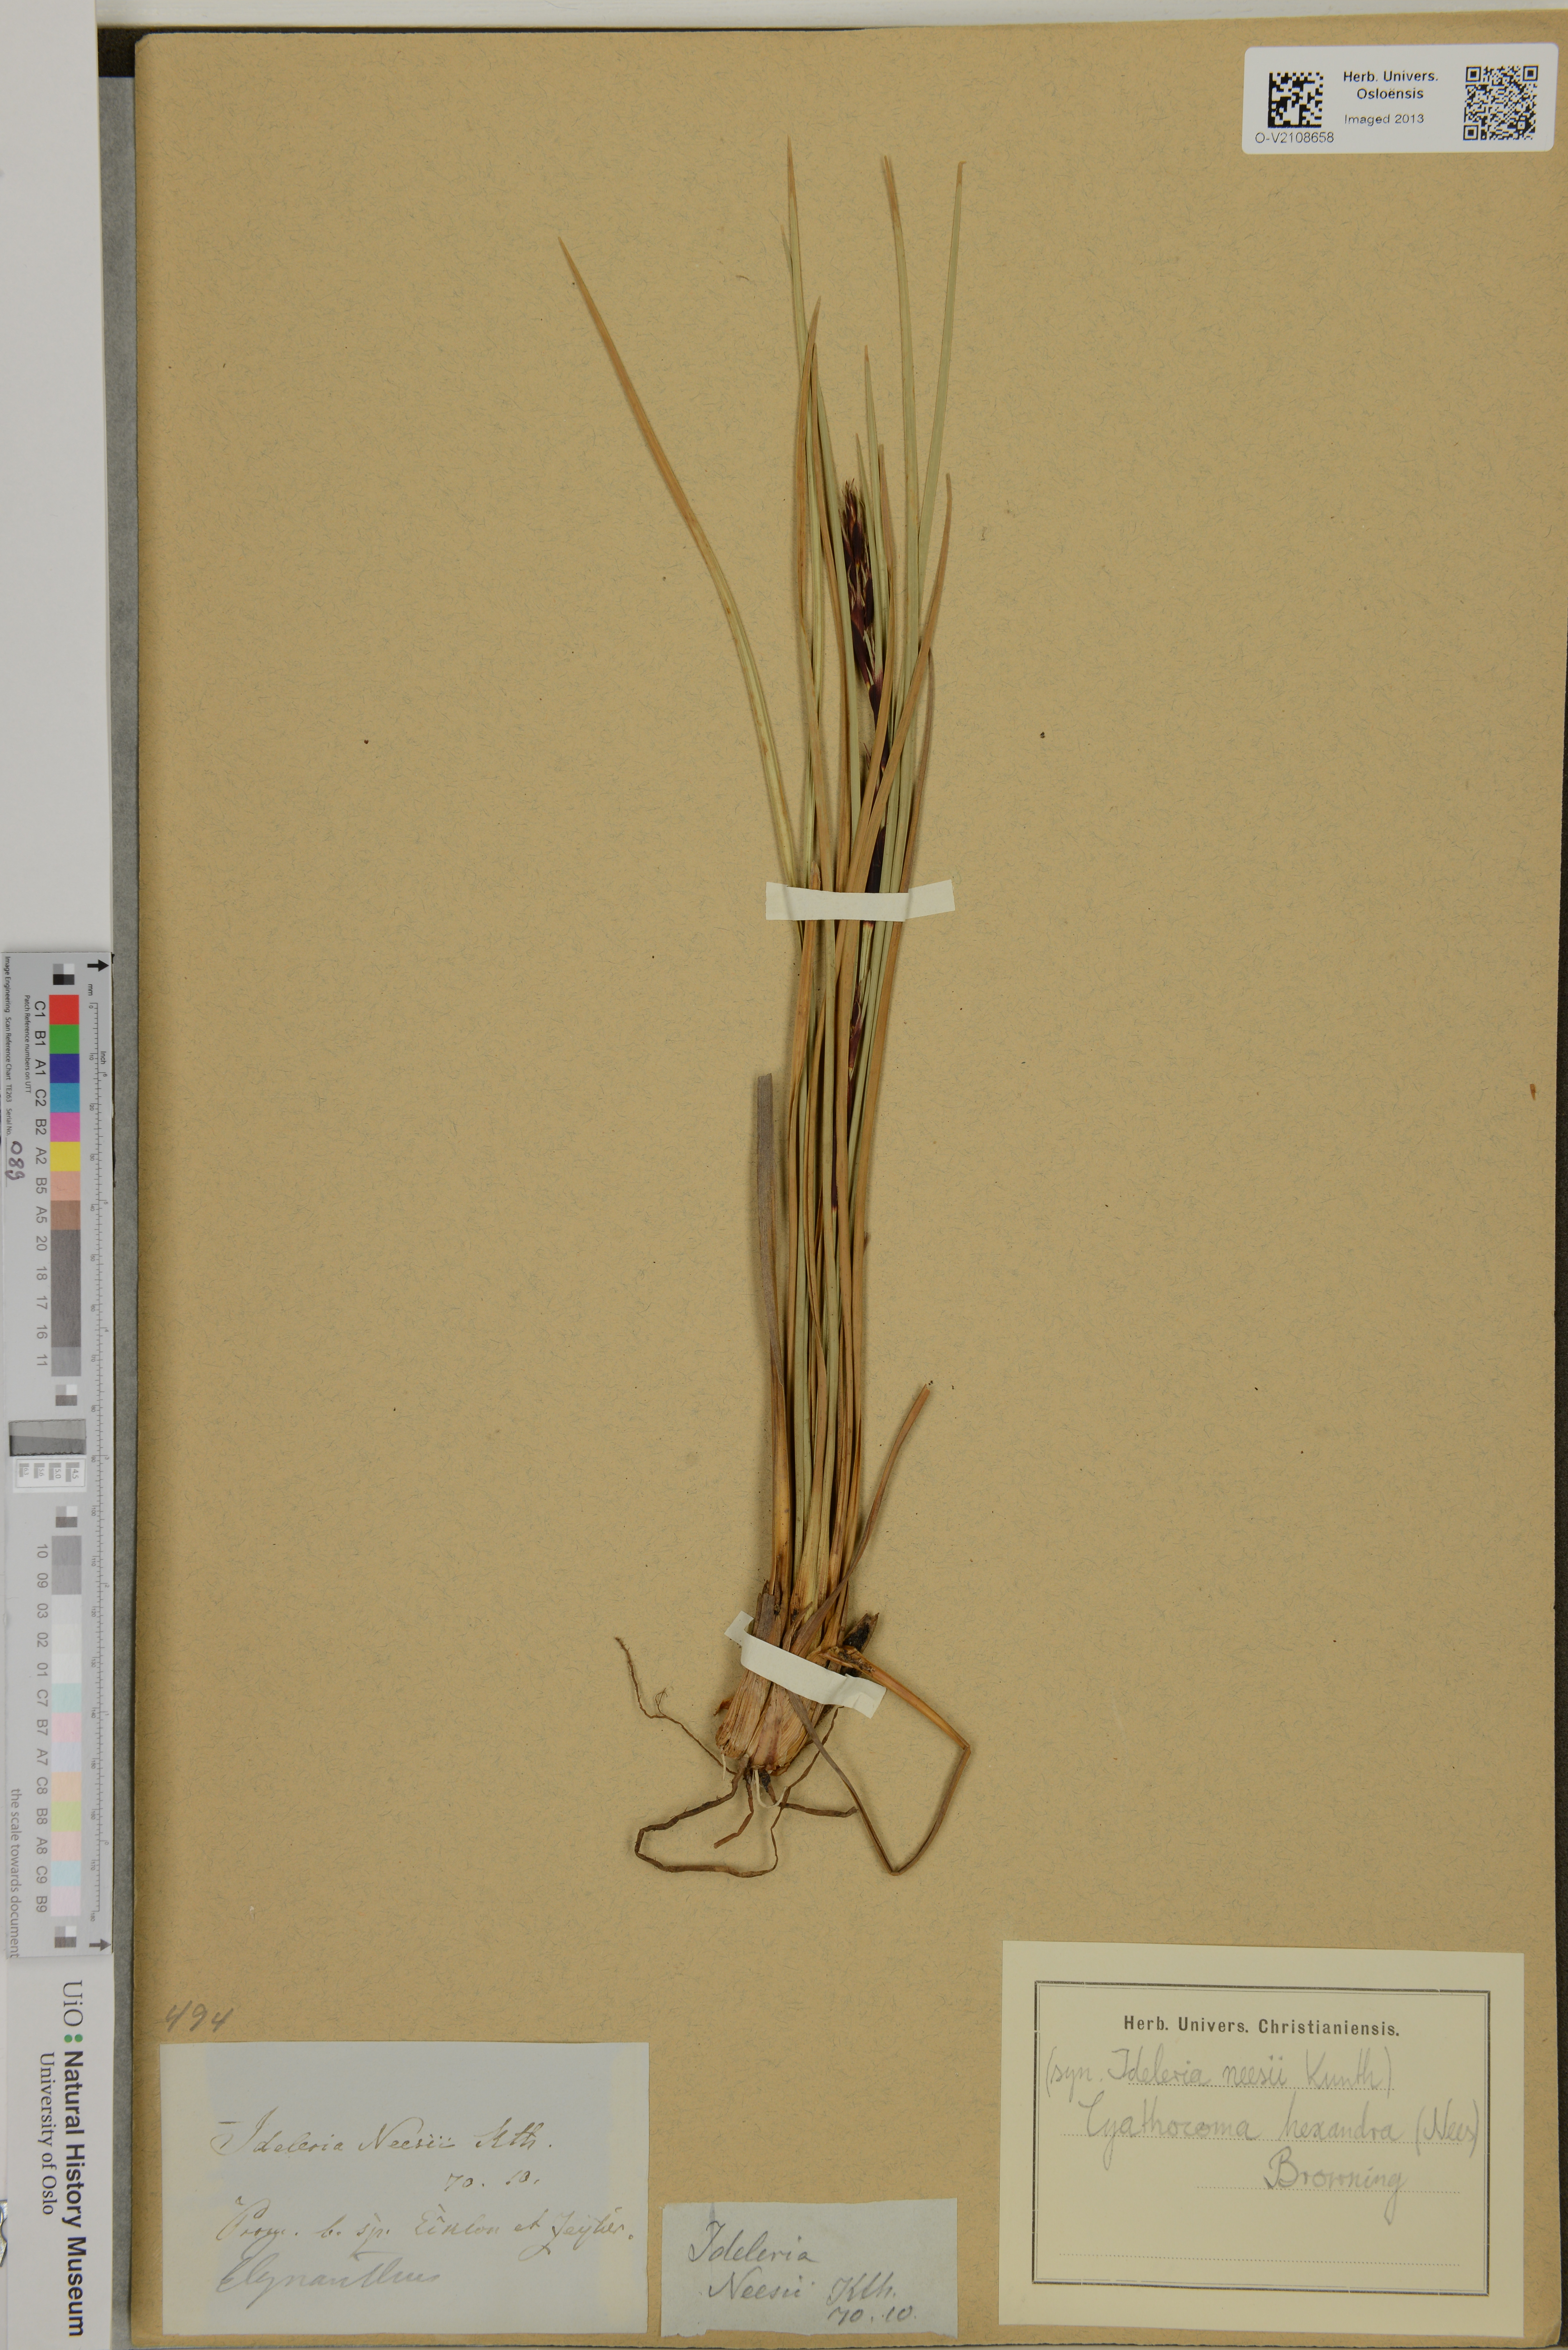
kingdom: Plantae
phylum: Tracheophyta
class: Liliopsida
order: Poales
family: Cyperaceae
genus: Cyathocoma
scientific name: Cyathocoma hexandra
